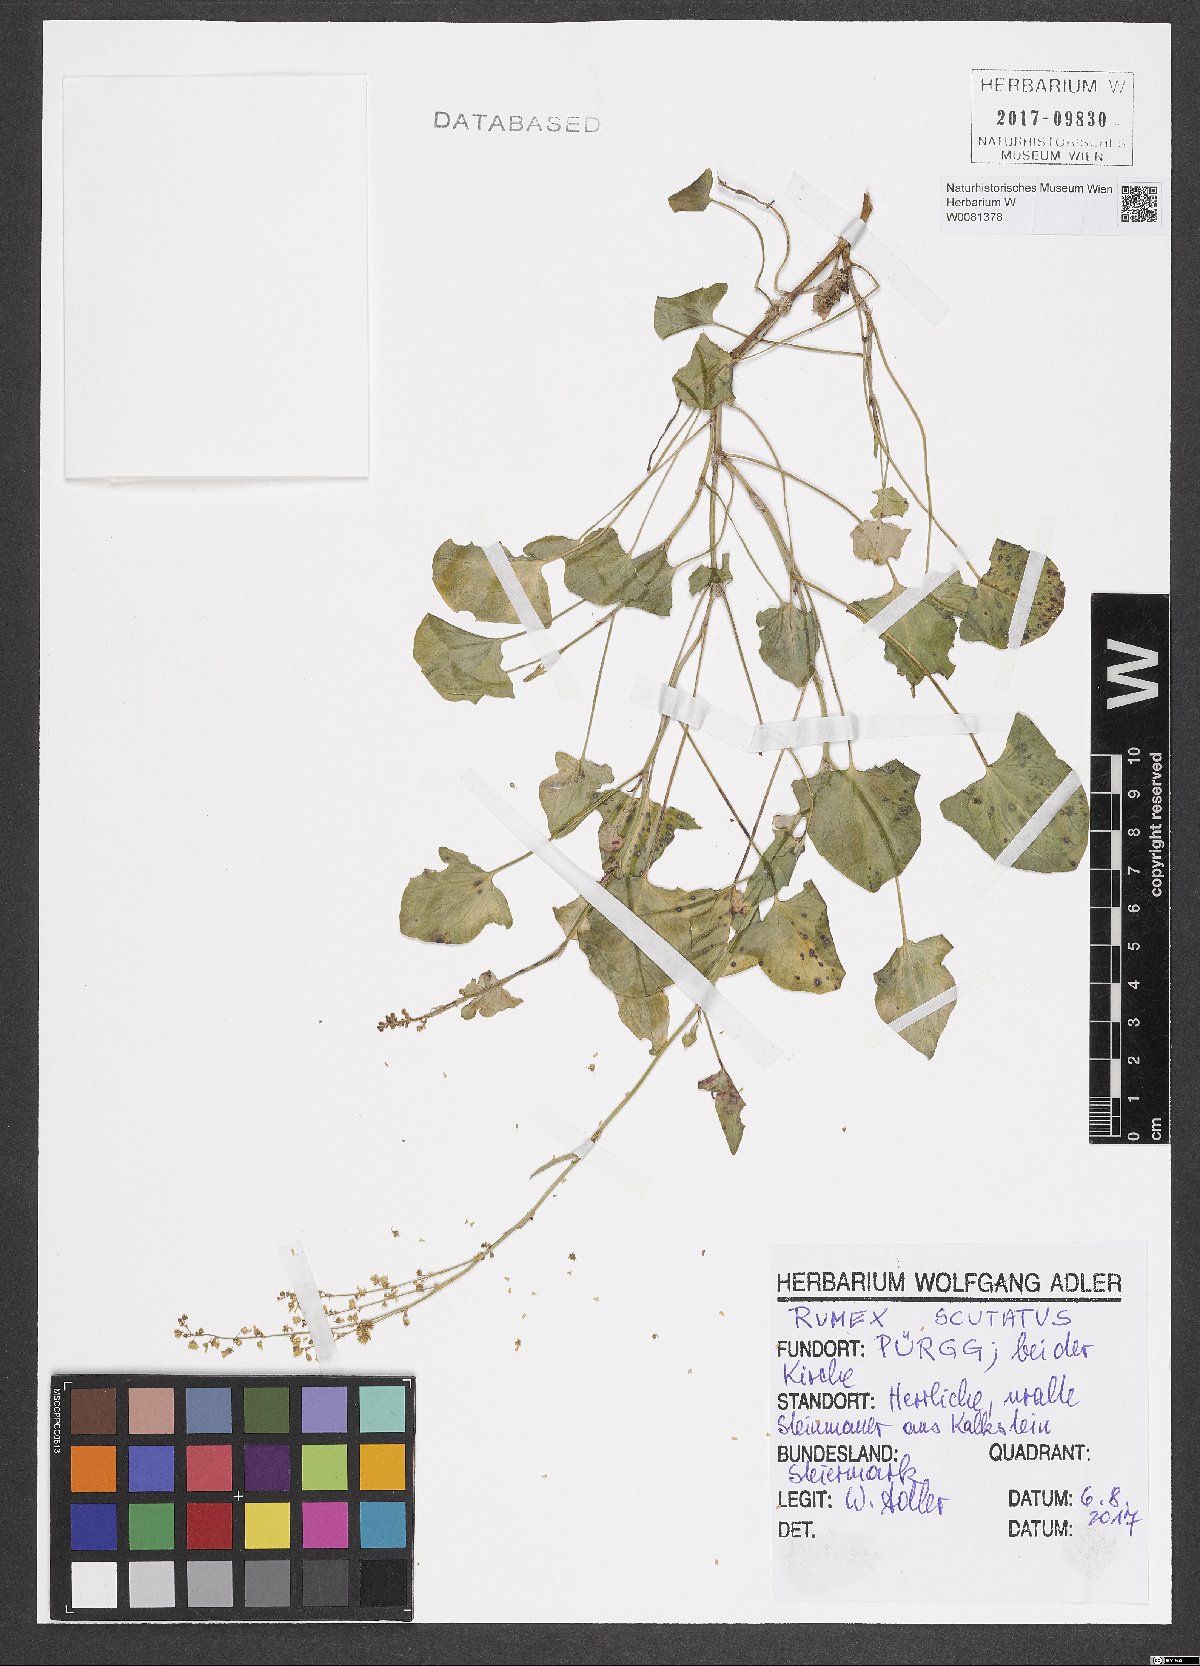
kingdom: Plantae
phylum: Tracheophyta
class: Magnoliopsida
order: Caryophyllales
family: Polygonaceae
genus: Rumex
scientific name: Rumex scutatus
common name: French sorrel
